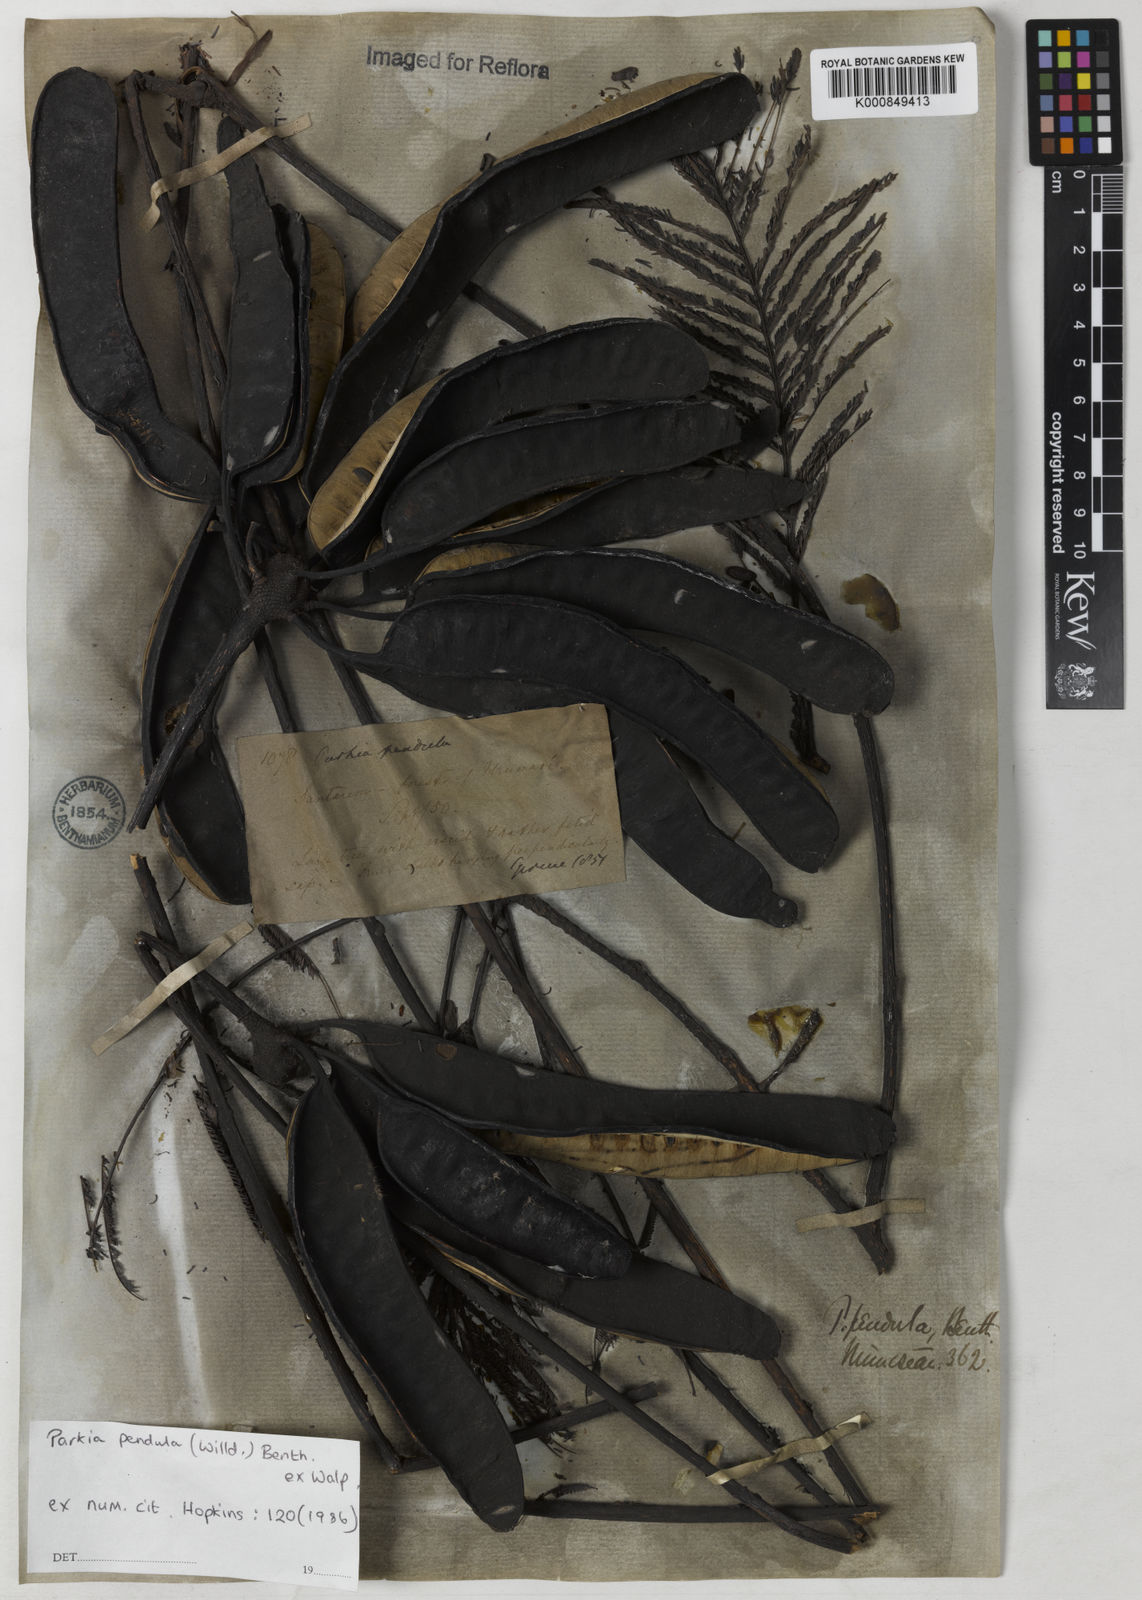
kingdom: Plantae
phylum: Tracheophyta
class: Magnoliopsida
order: Fabales
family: Fabaceae
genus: Parkia
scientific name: Parkia
